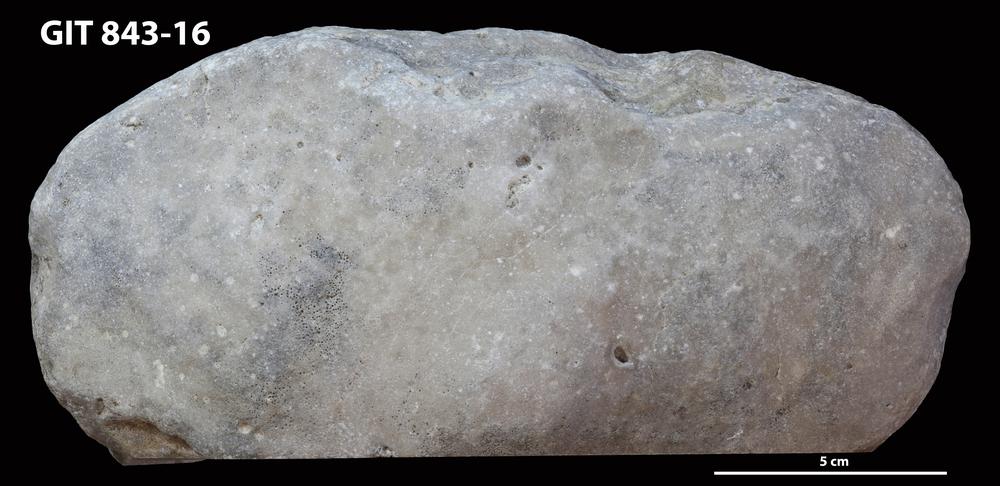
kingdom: Animalia
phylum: Bryozoa
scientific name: Bryozoa
